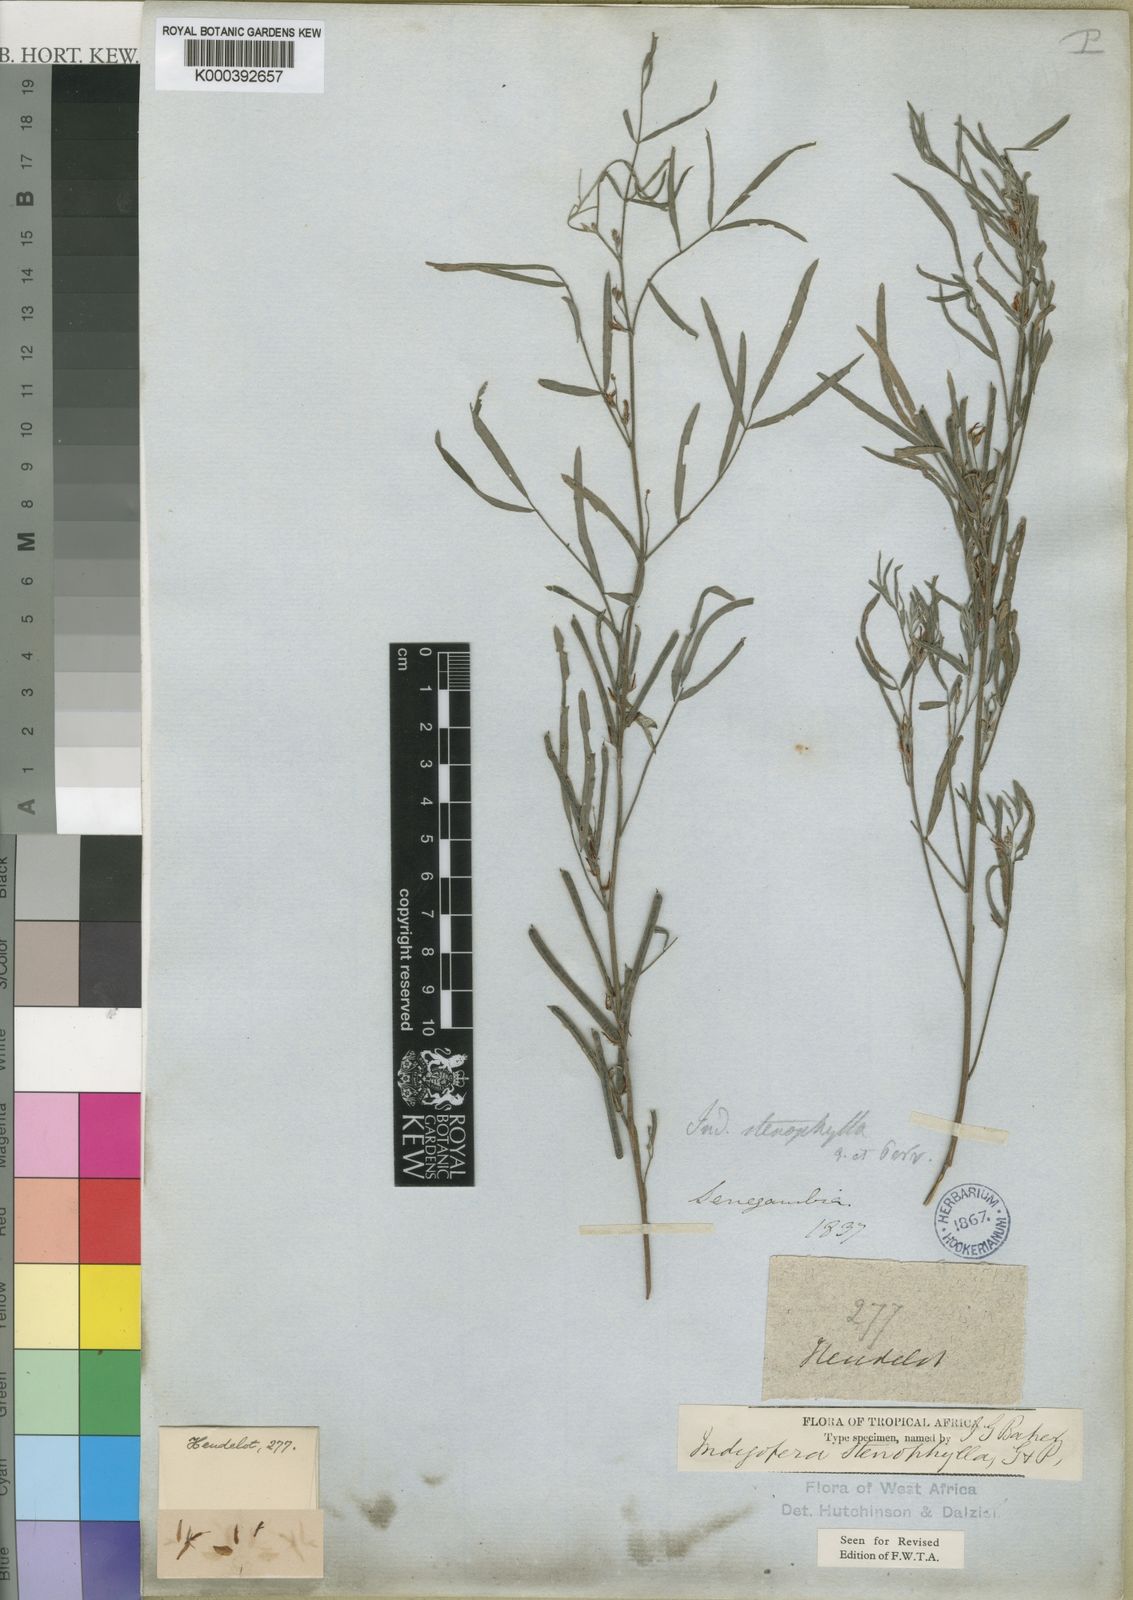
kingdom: Plantae
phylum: Tracheophyta
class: Magnoliopsida
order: Fabales
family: Fabaceae
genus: Indigofera
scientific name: Indigofera stenophylla
